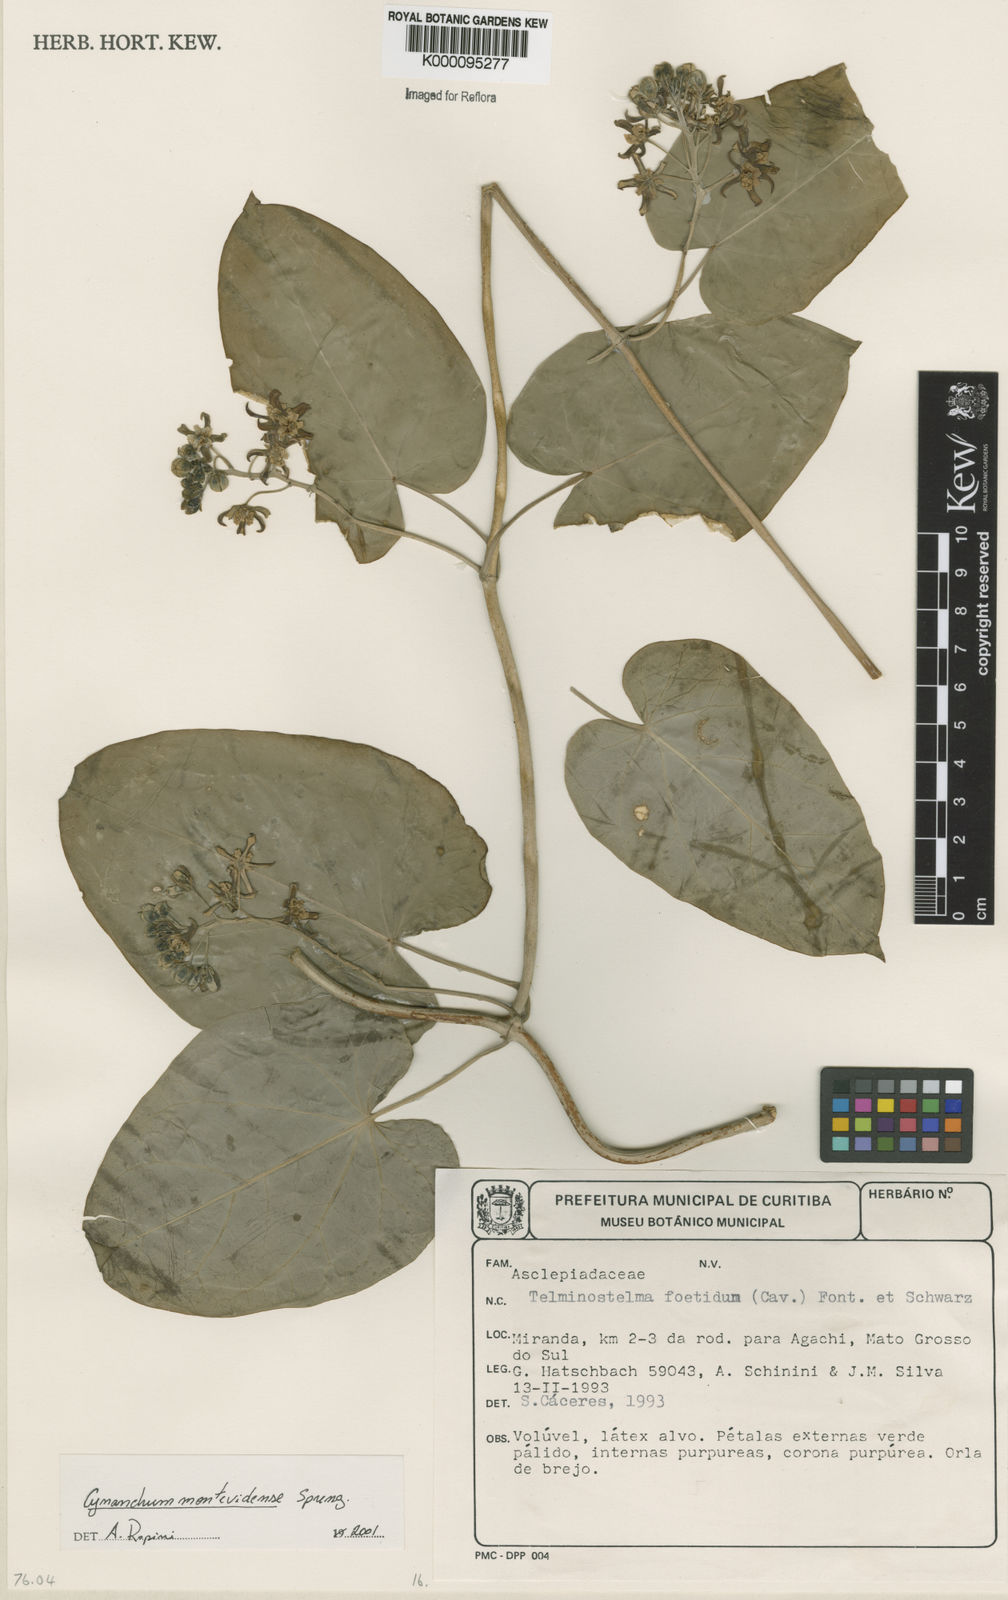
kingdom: Plantae
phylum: Tracheophyta
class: Magnoliopsida
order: Gentianales
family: Apocynaceae
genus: Cynanchum
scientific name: Cynanchum montevidense
